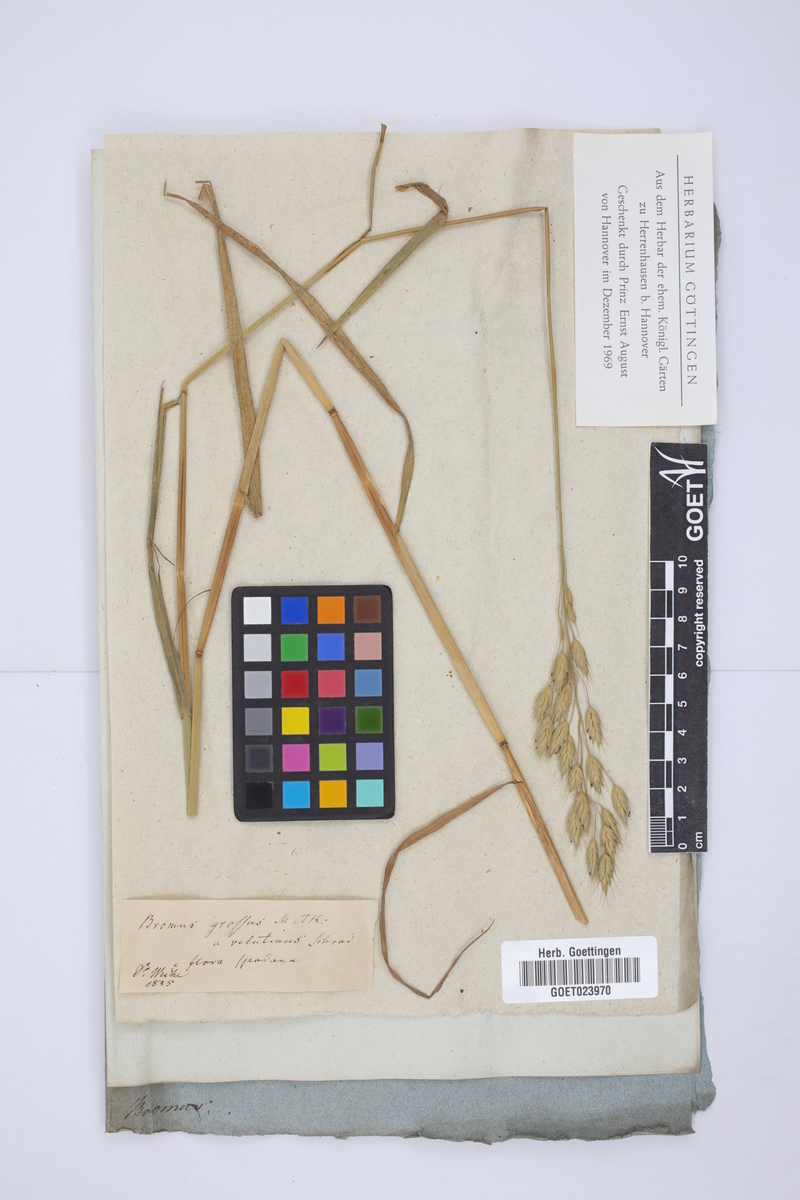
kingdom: Plantae
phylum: Tracheophyta
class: Liliopsida
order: Poales
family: Poaceae
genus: Bromus
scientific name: Bromus grossus
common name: Whiskered brome
